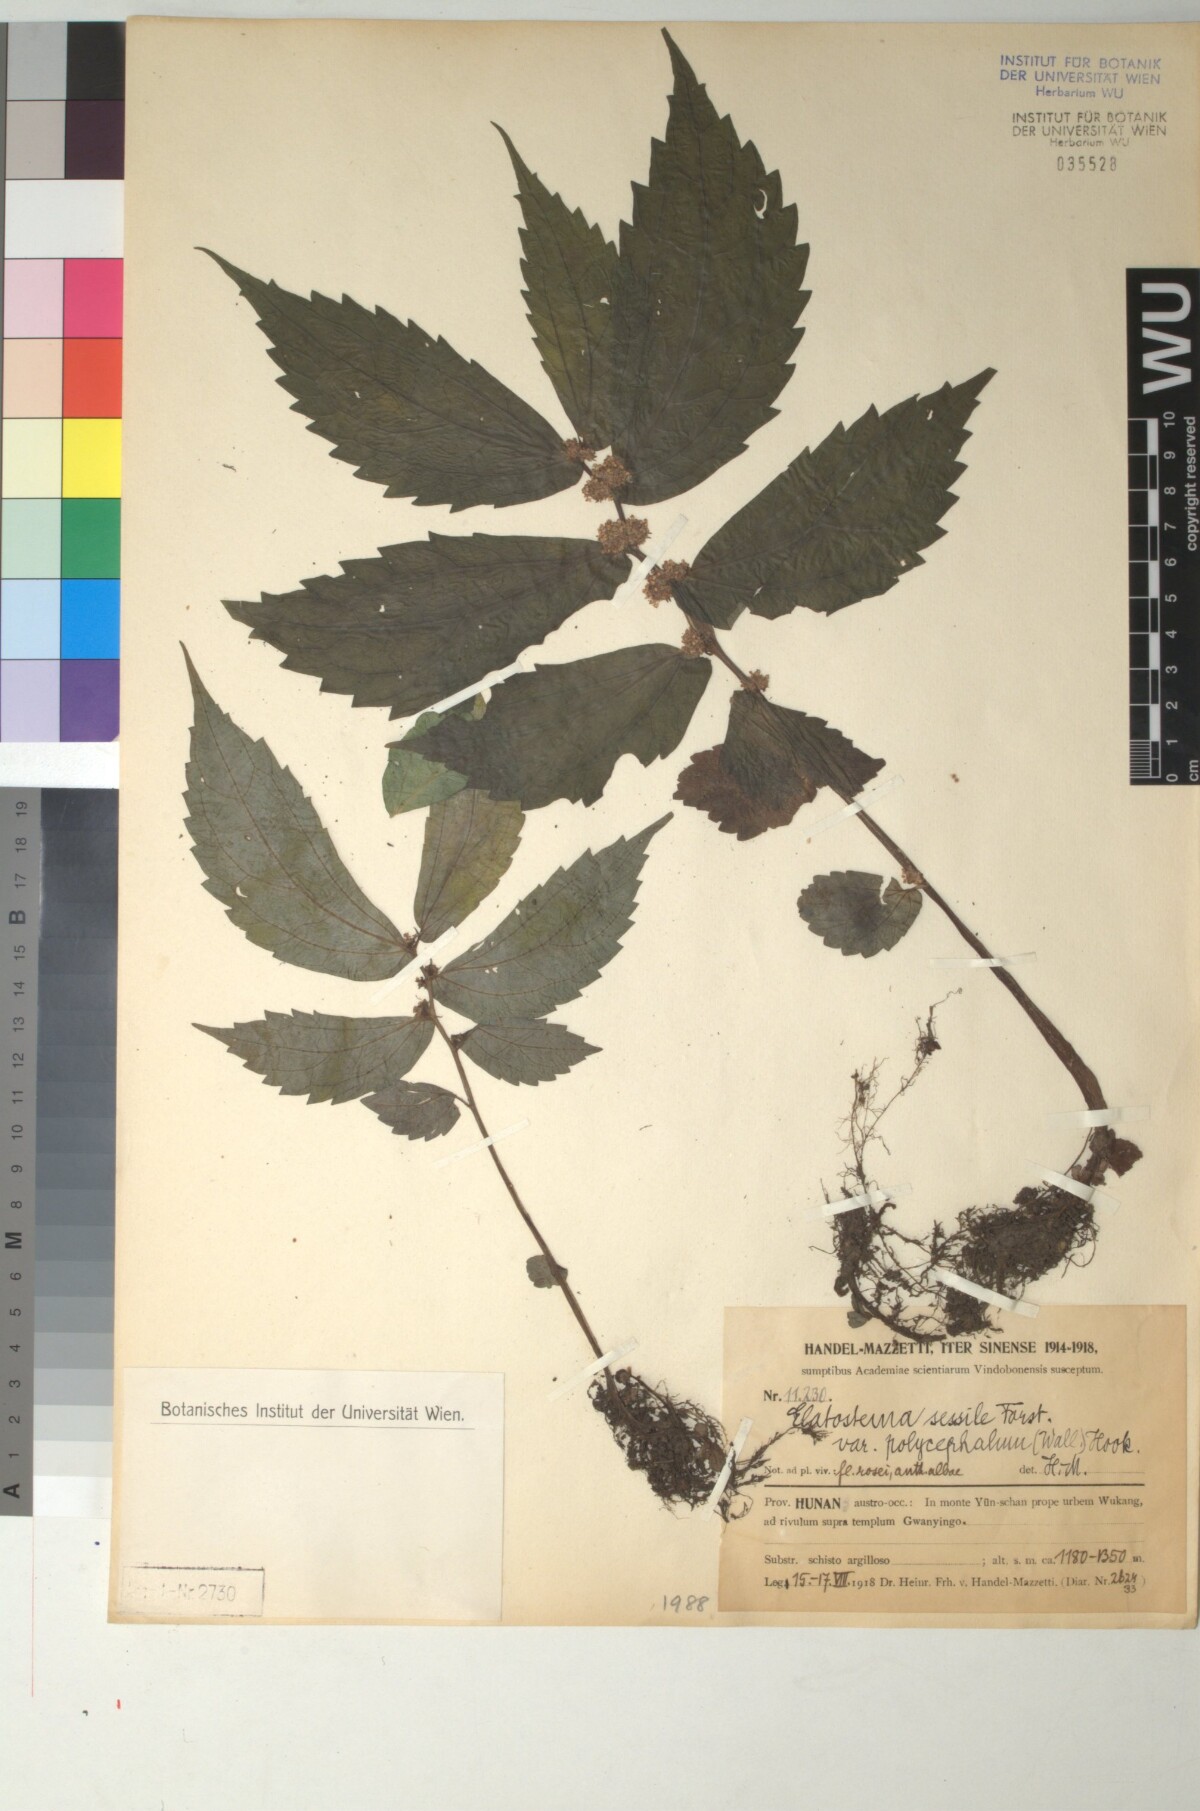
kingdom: Plantae
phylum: Tracheophyta
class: Magnoliopsida
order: Rosales
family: Urticaceae
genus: Elatostema
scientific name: Elatostema nasutum
